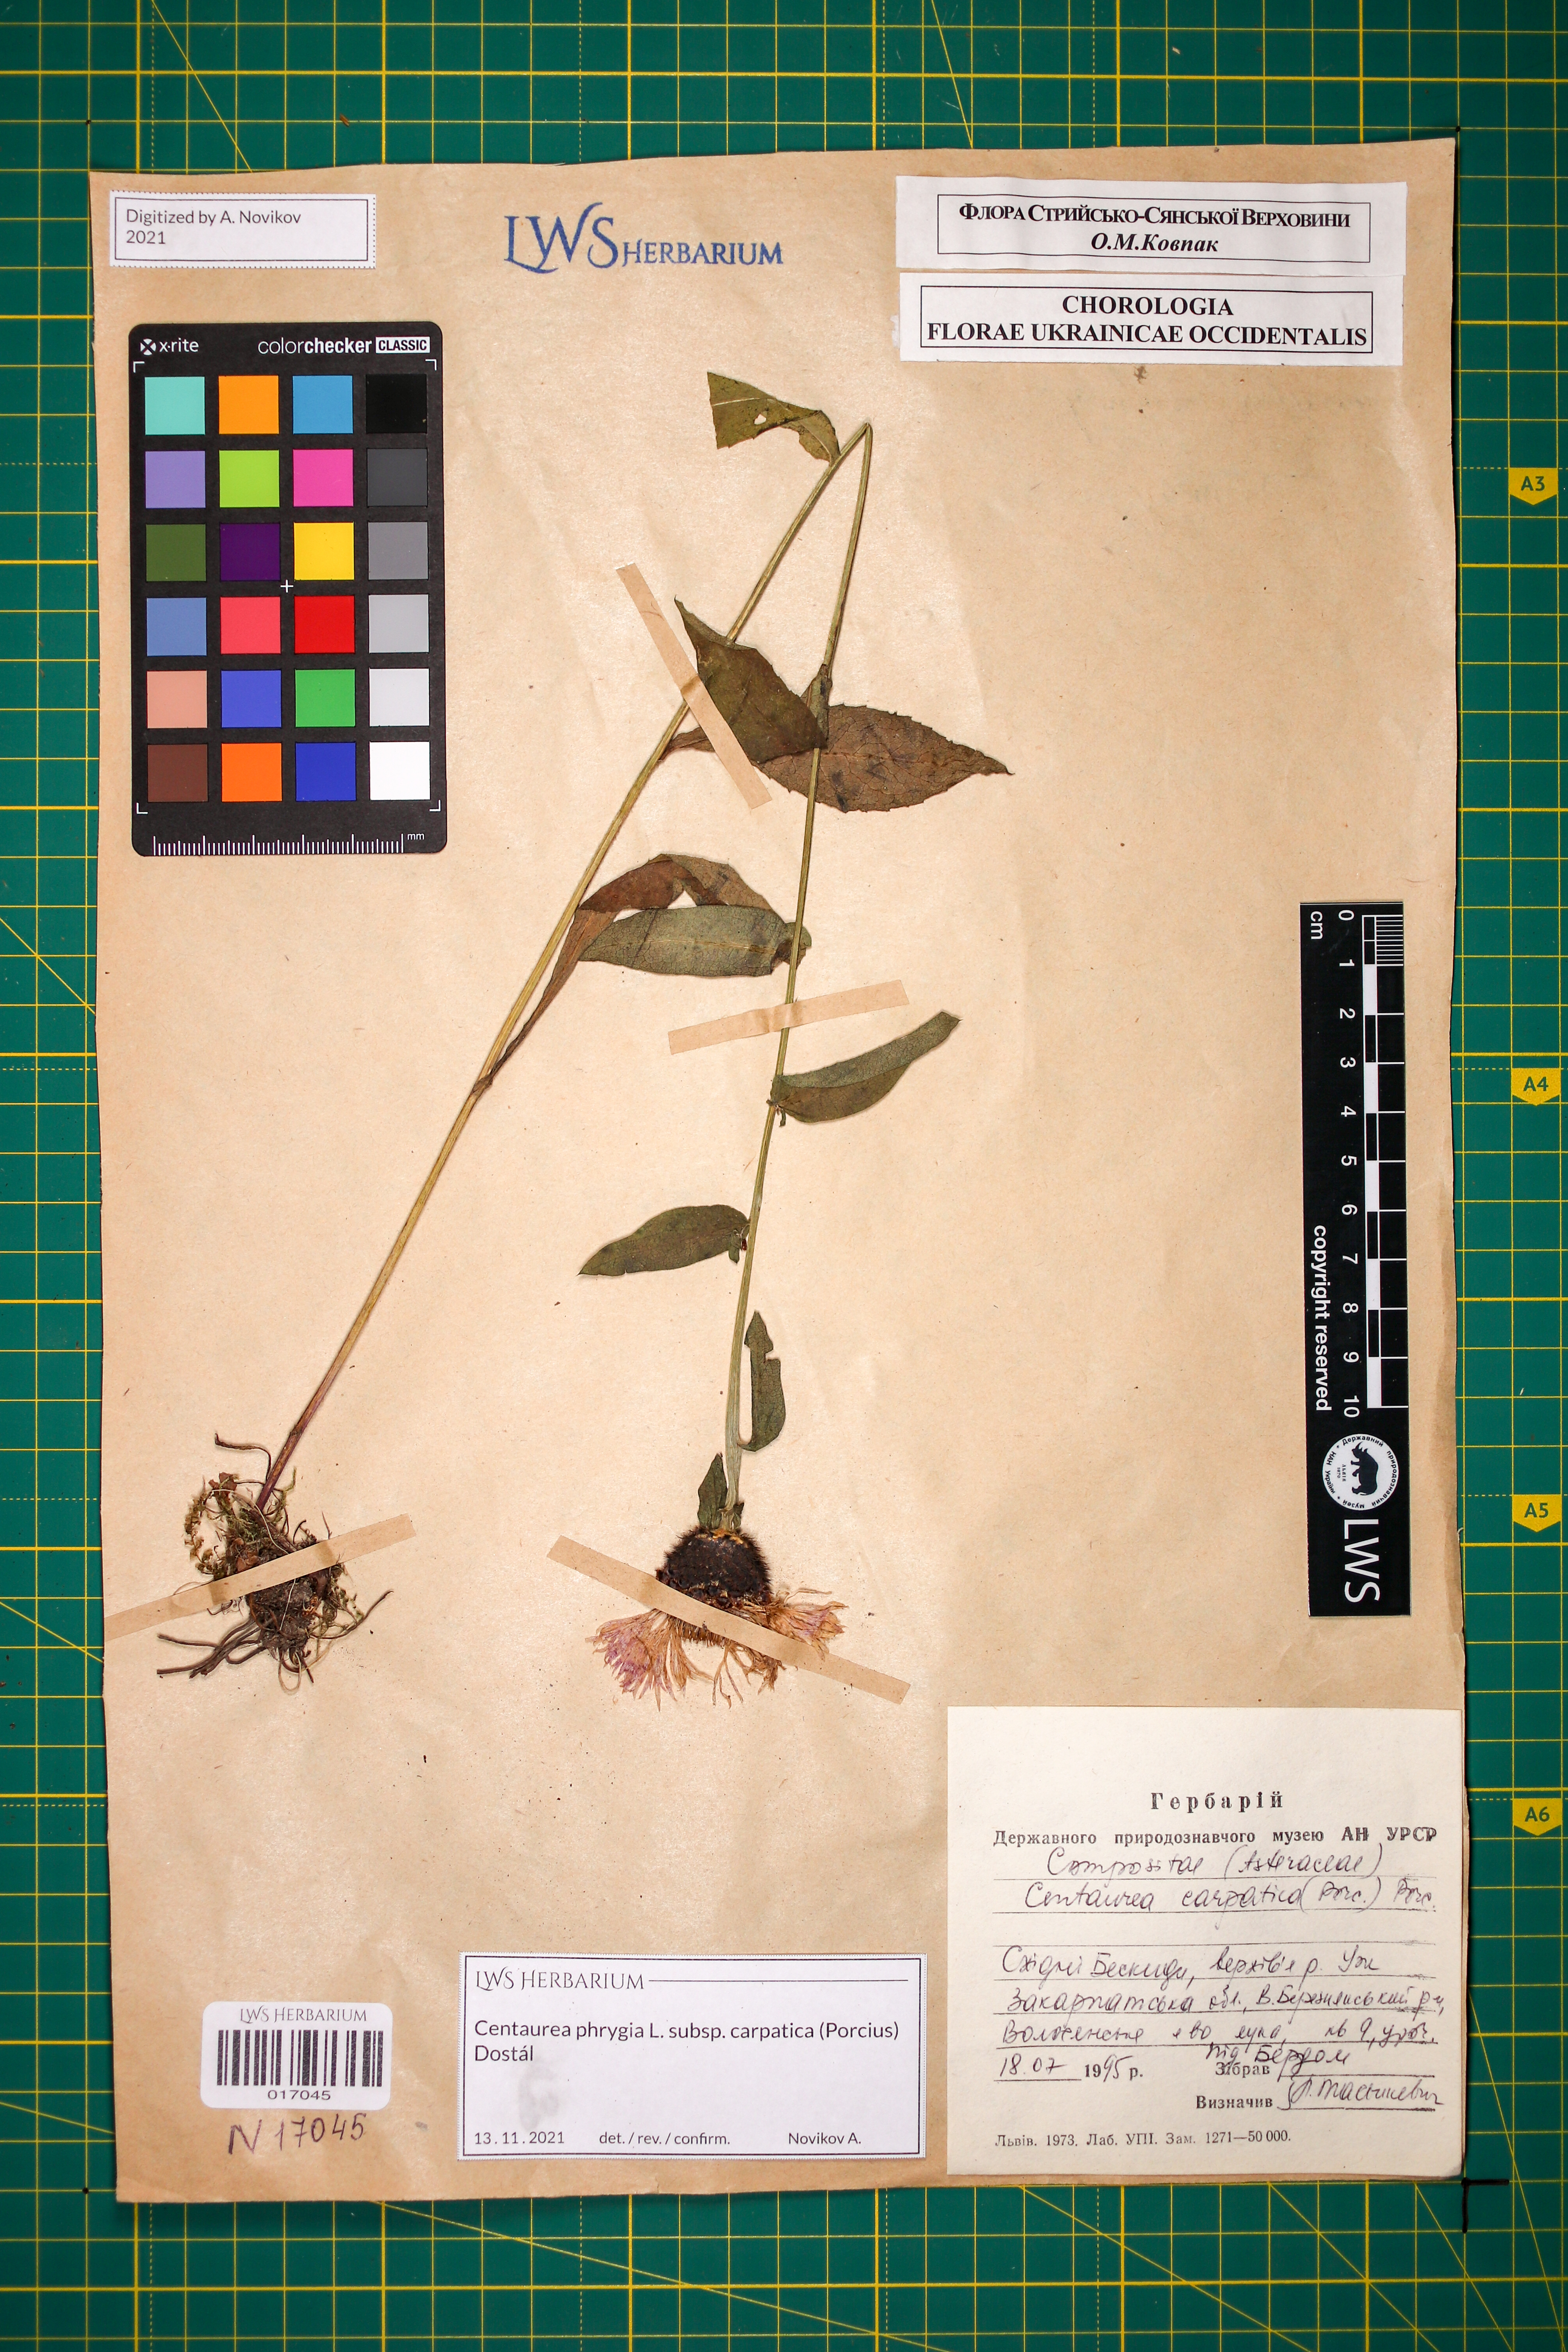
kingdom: Plantae
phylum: Tracheophyta
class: Magnoliopsida
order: Asterales
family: Asteraceae
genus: Centaurea
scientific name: Centaurea phrygia
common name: Wig knapweed
